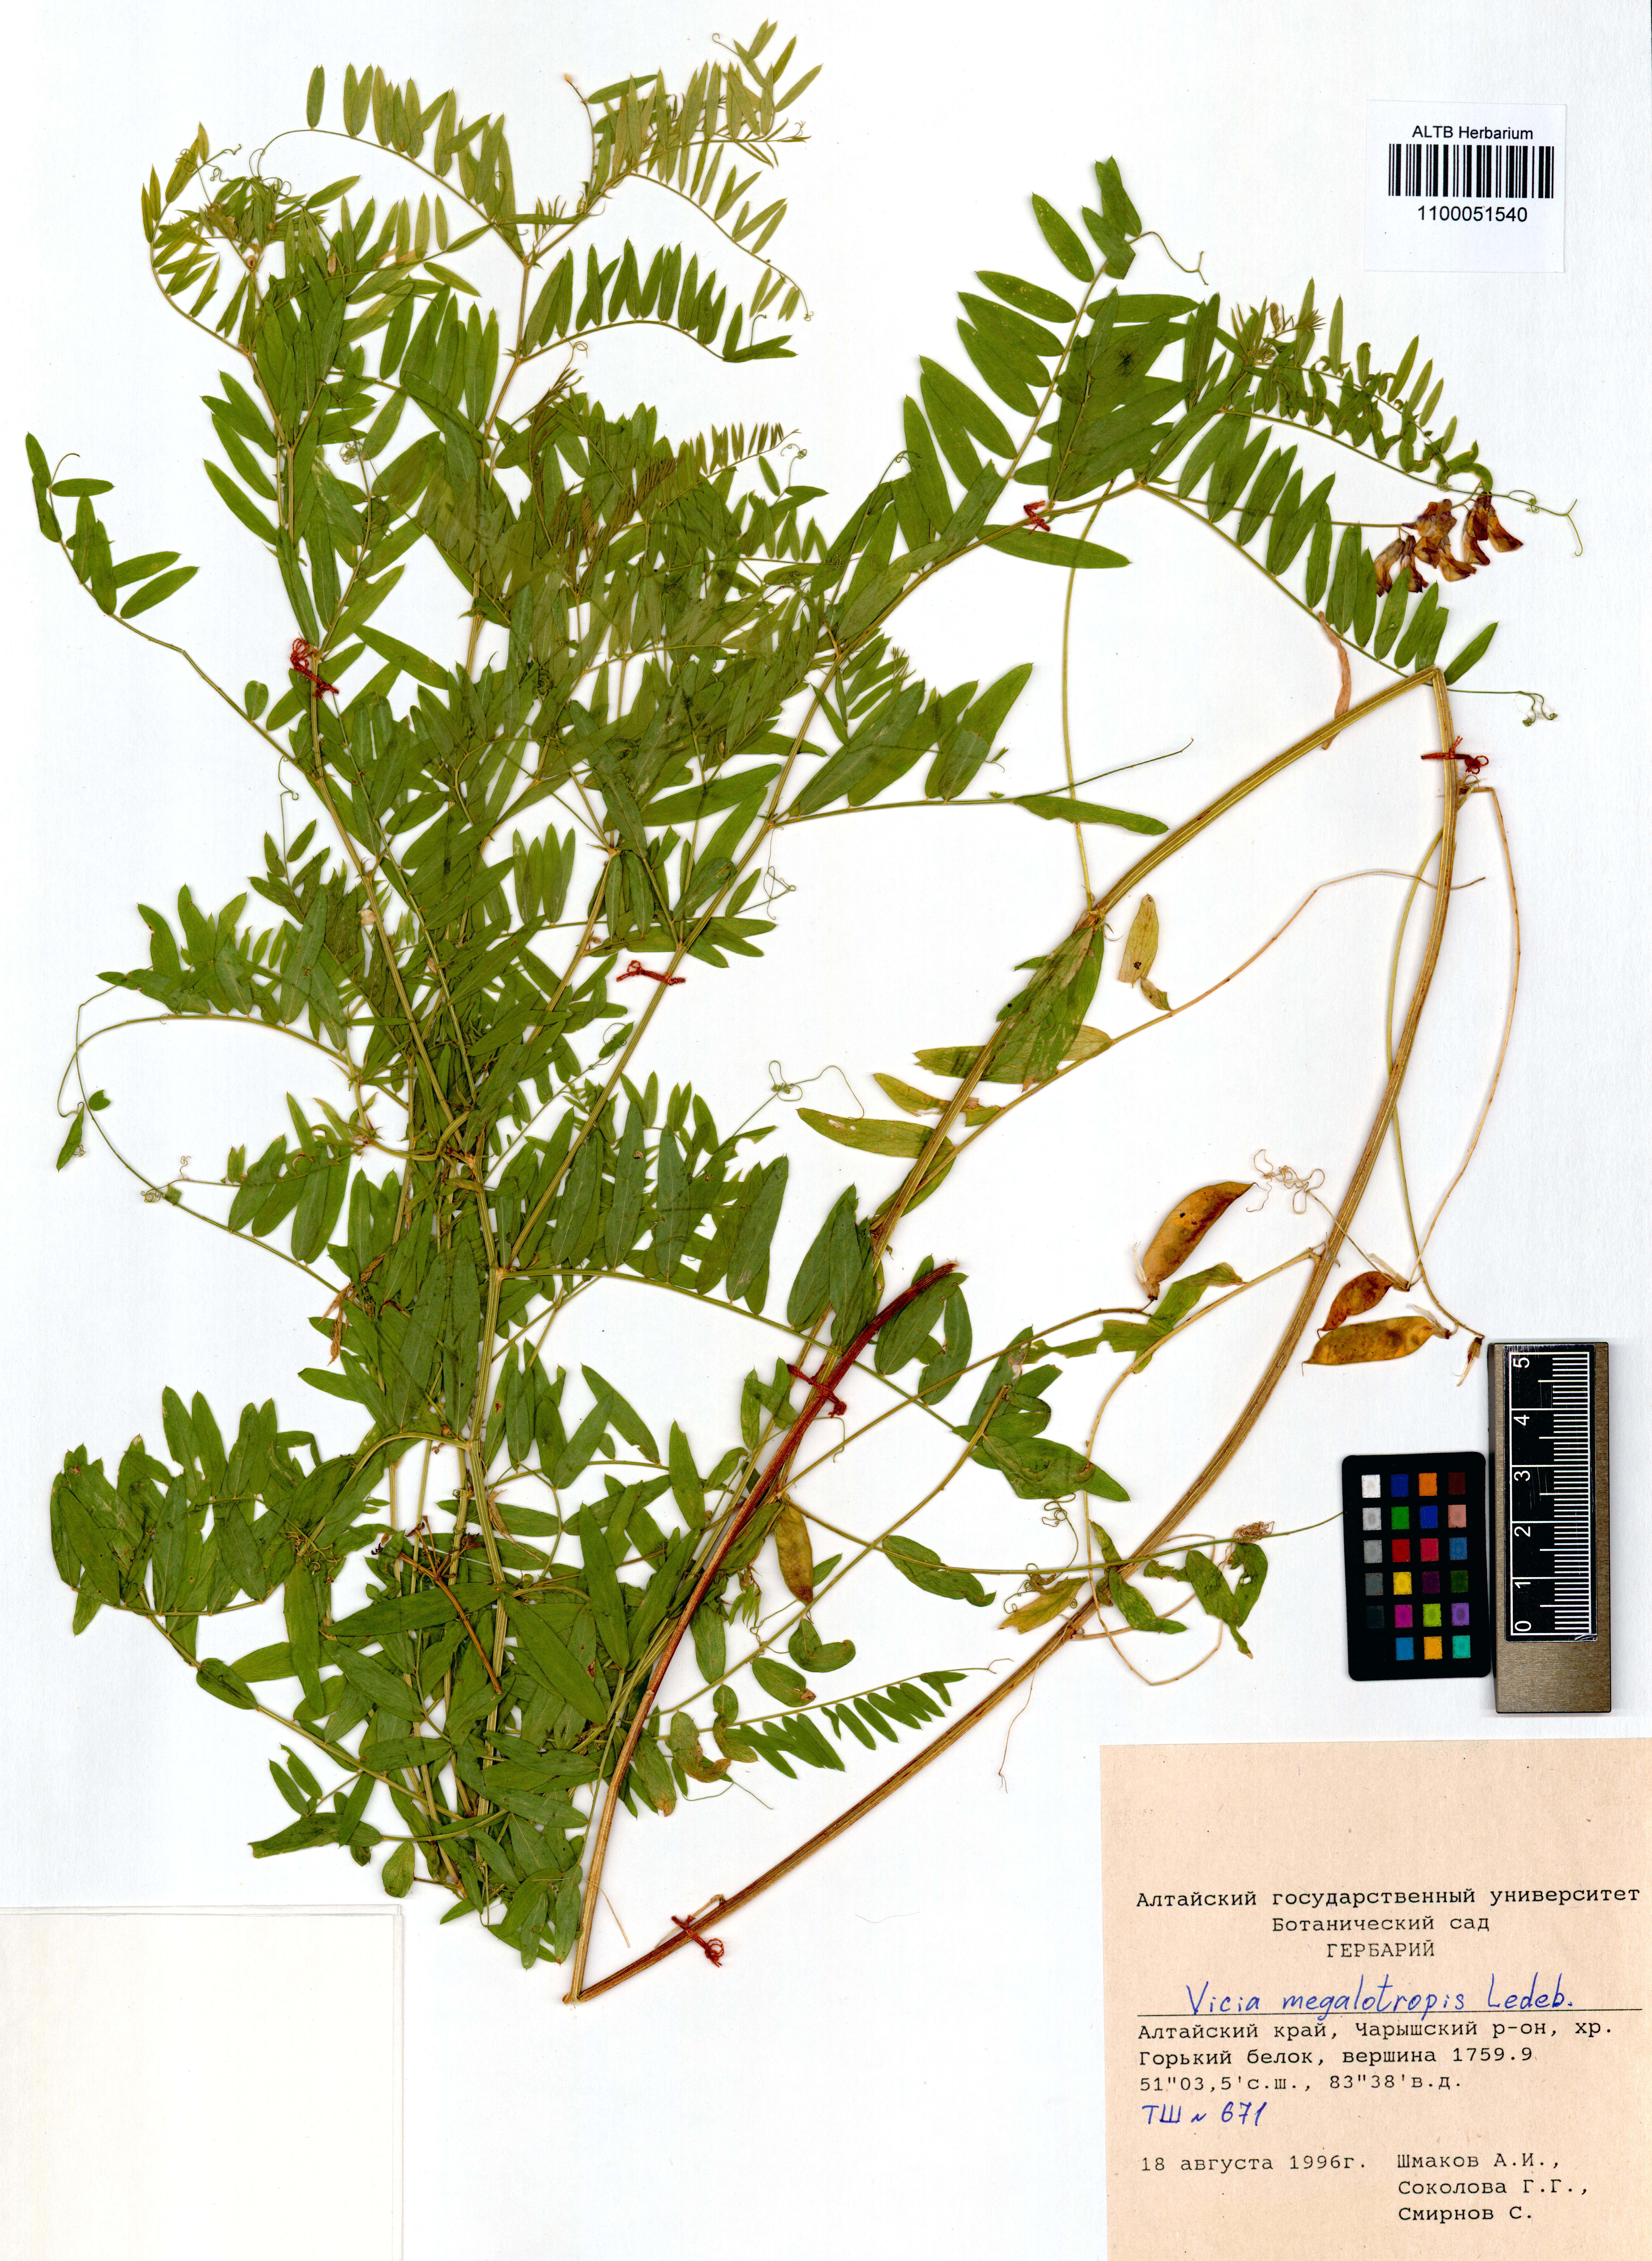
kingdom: Plantae
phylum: Tracheophyta
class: Magnoliopsida
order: Fabales
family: Fabaceae
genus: Vicia
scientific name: Vicia megalotropis
